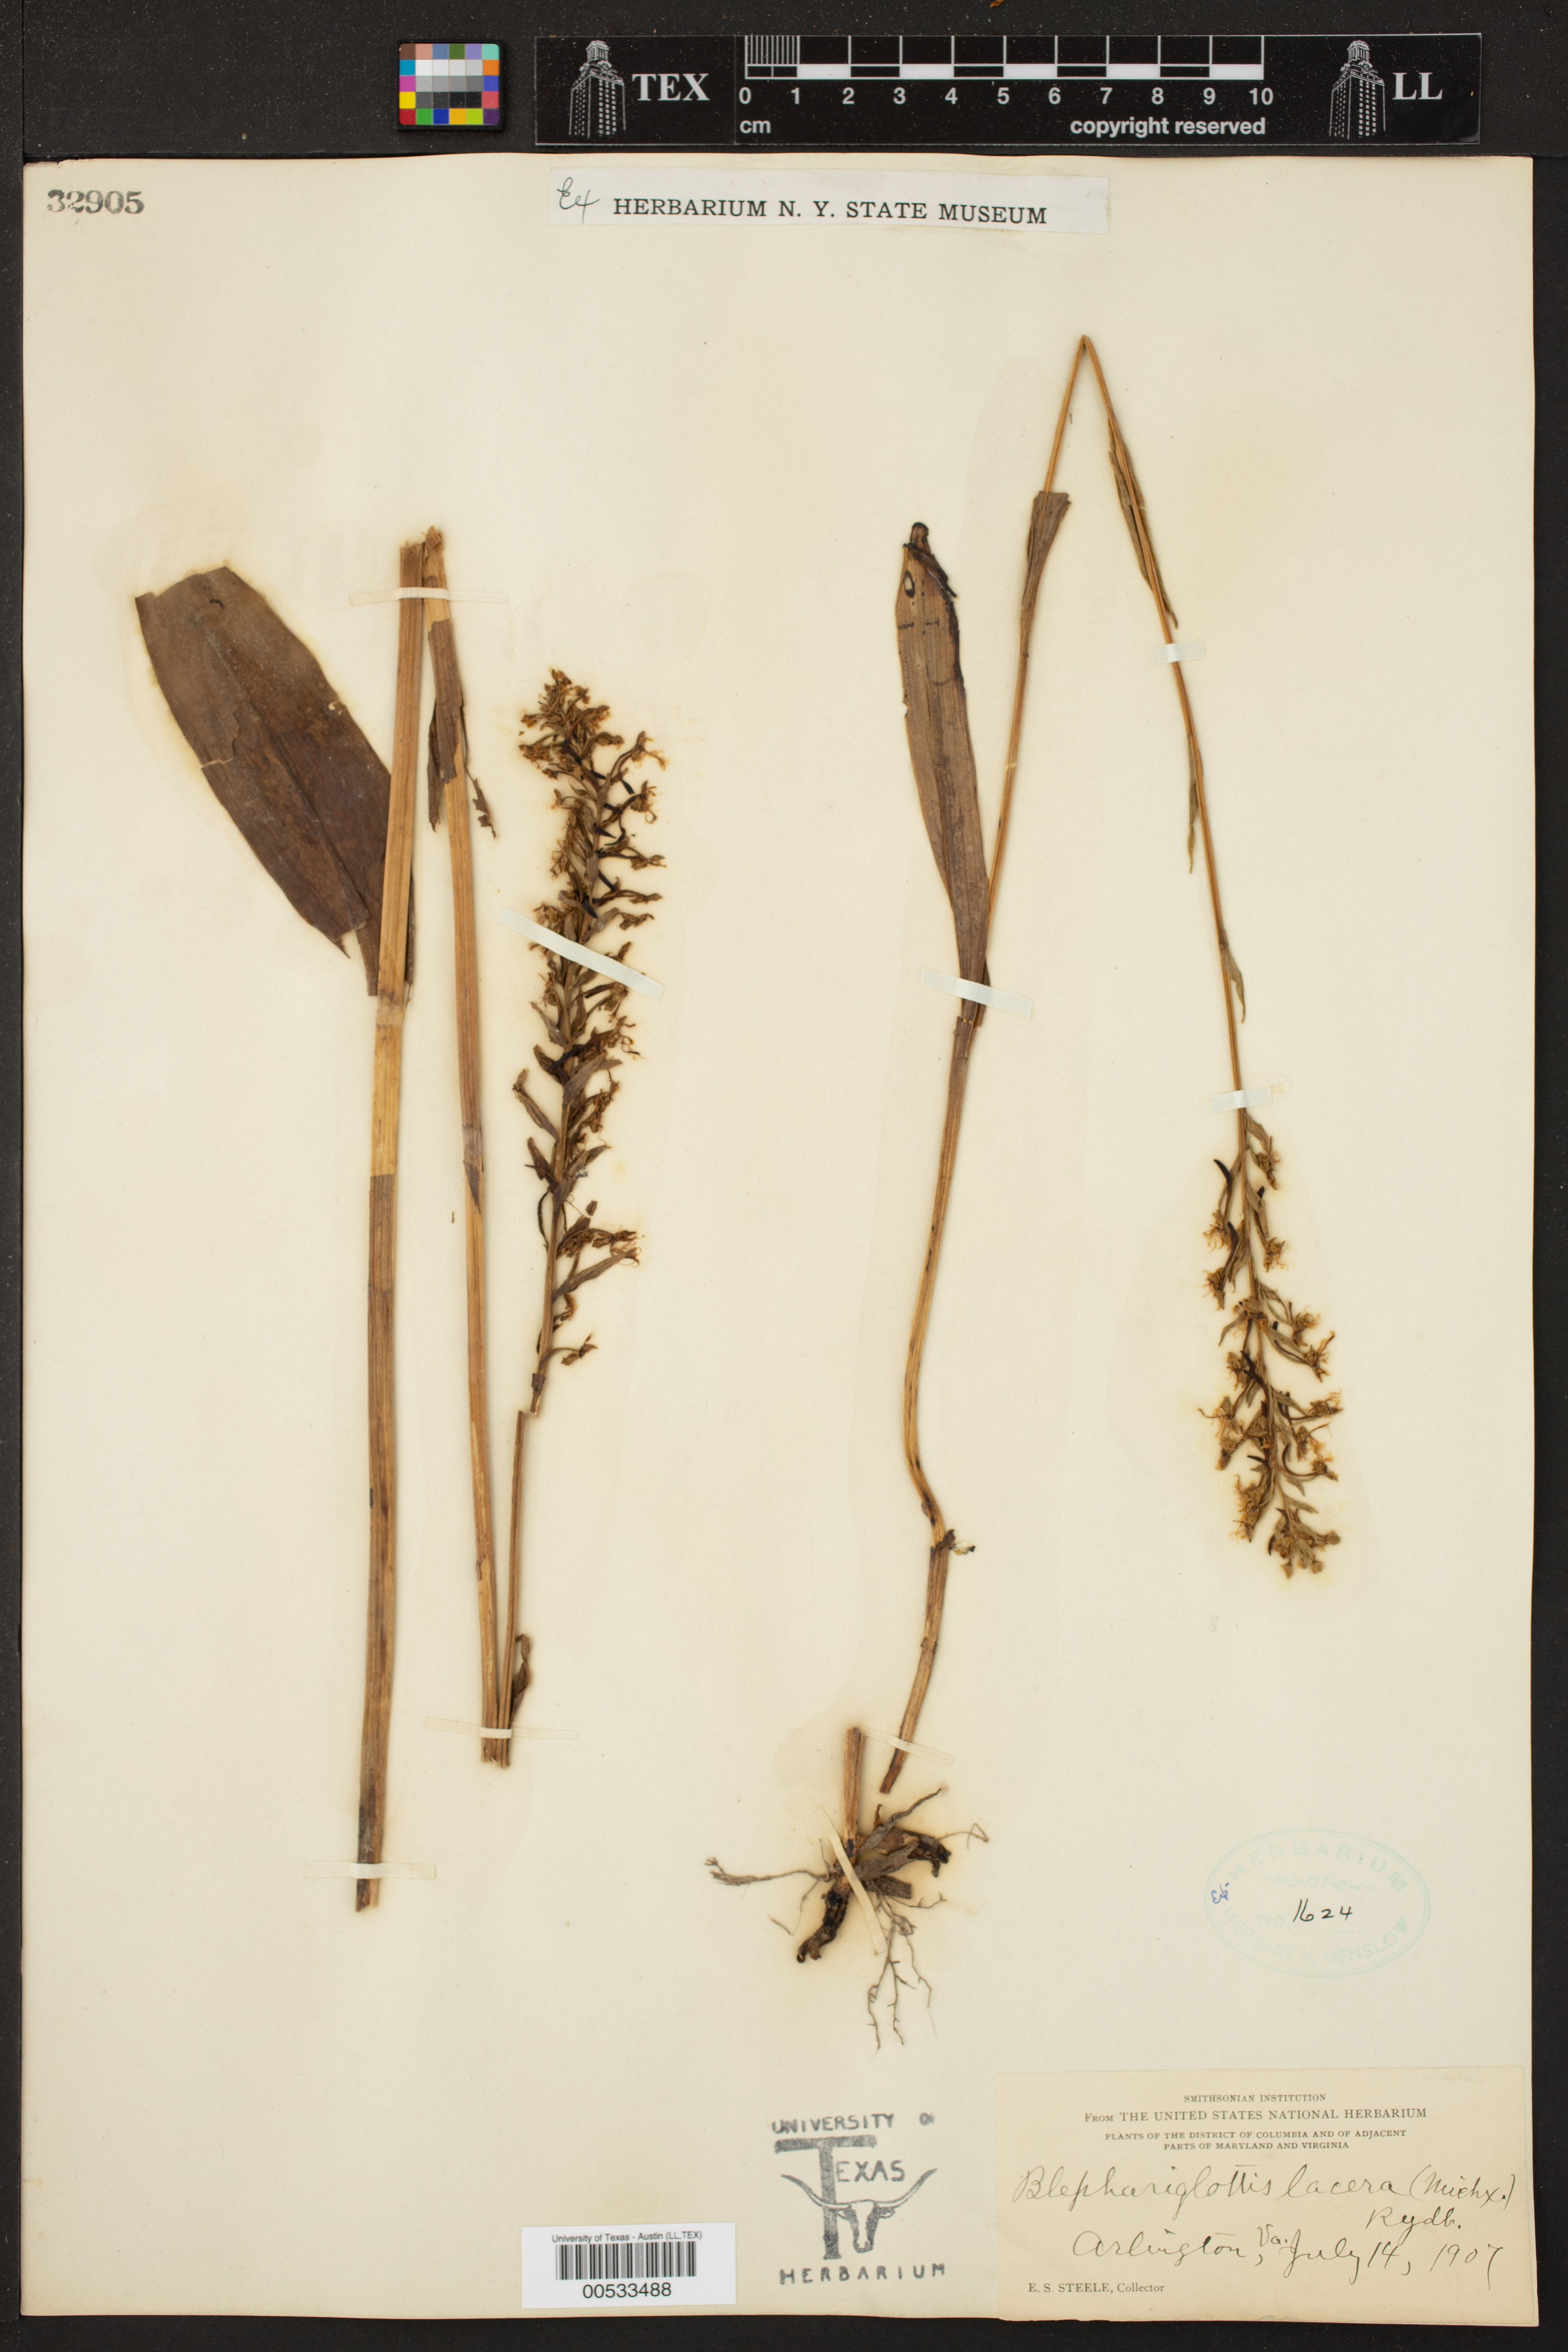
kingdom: Plantae
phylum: Tracheophyta
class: Liliopsida
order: Asparagales
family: Orchidaceae
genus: Platanthera
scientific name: Platanthera lacera
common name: Green fringed orchid
